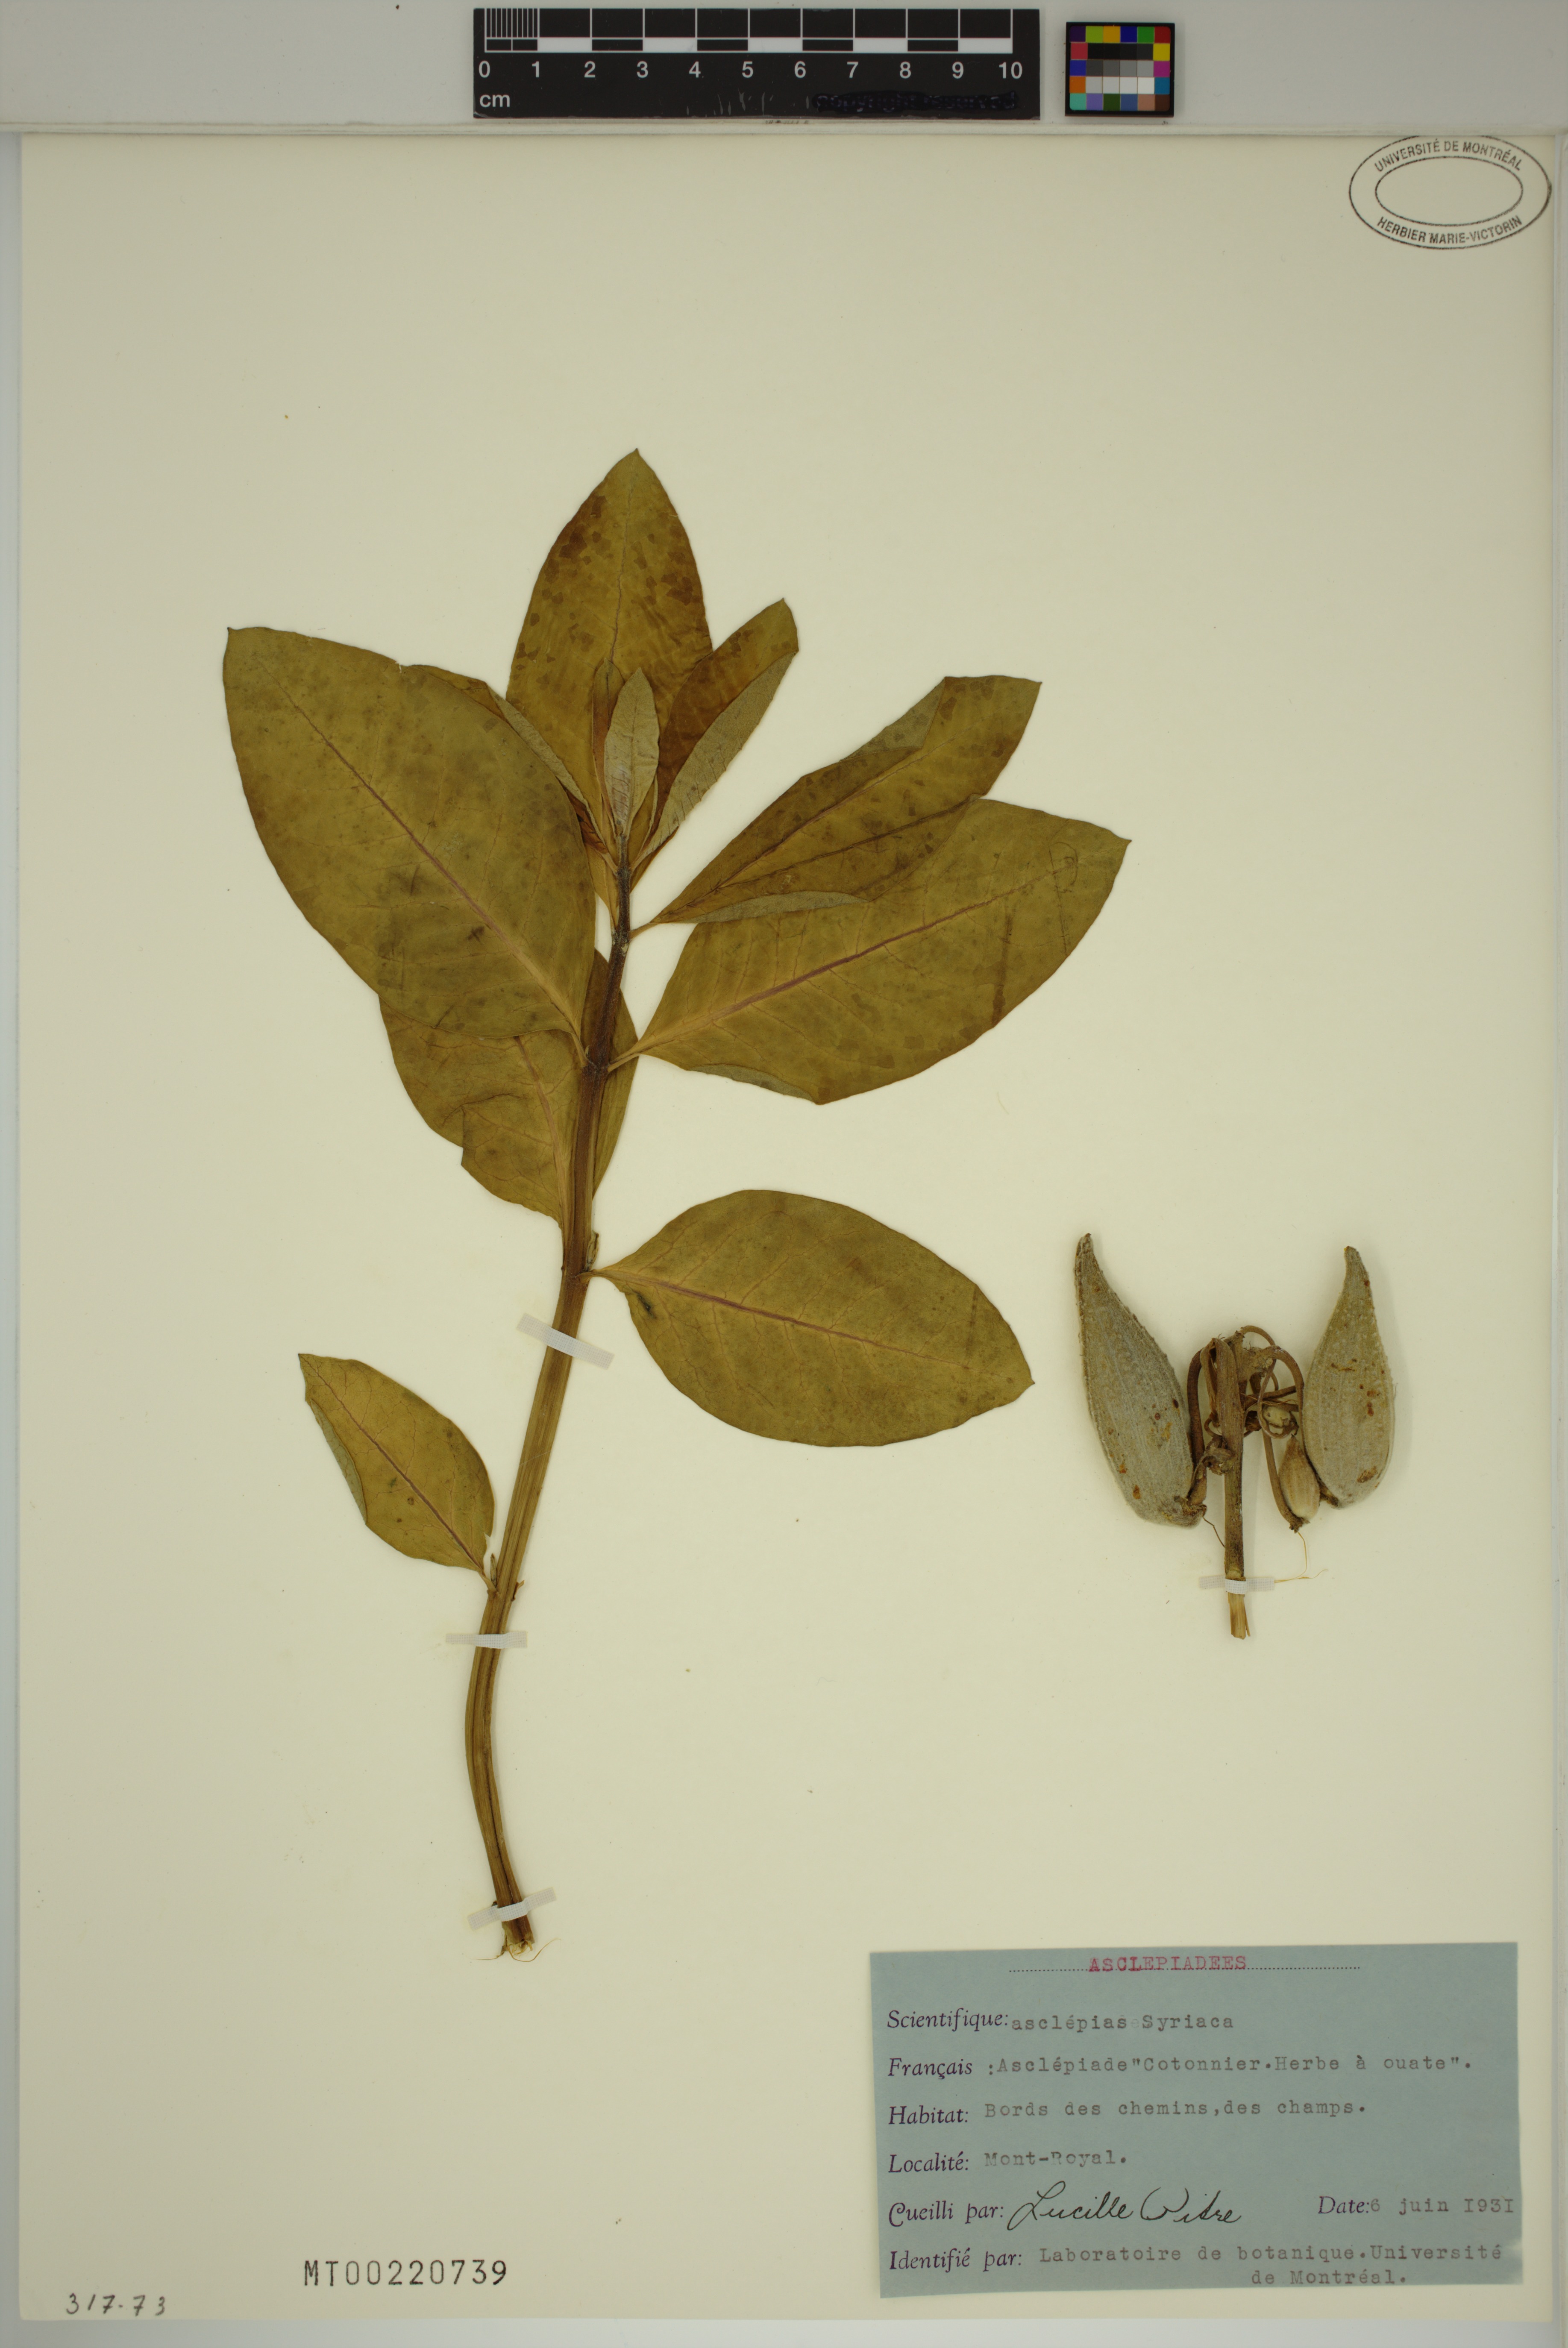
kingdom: Plantae
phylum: Tracheophyta
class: Magnoliopsida
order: Gentianales
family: Apocynaceae
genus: Asclepias
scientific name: Asclepias syriaca
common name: Common milkweed
